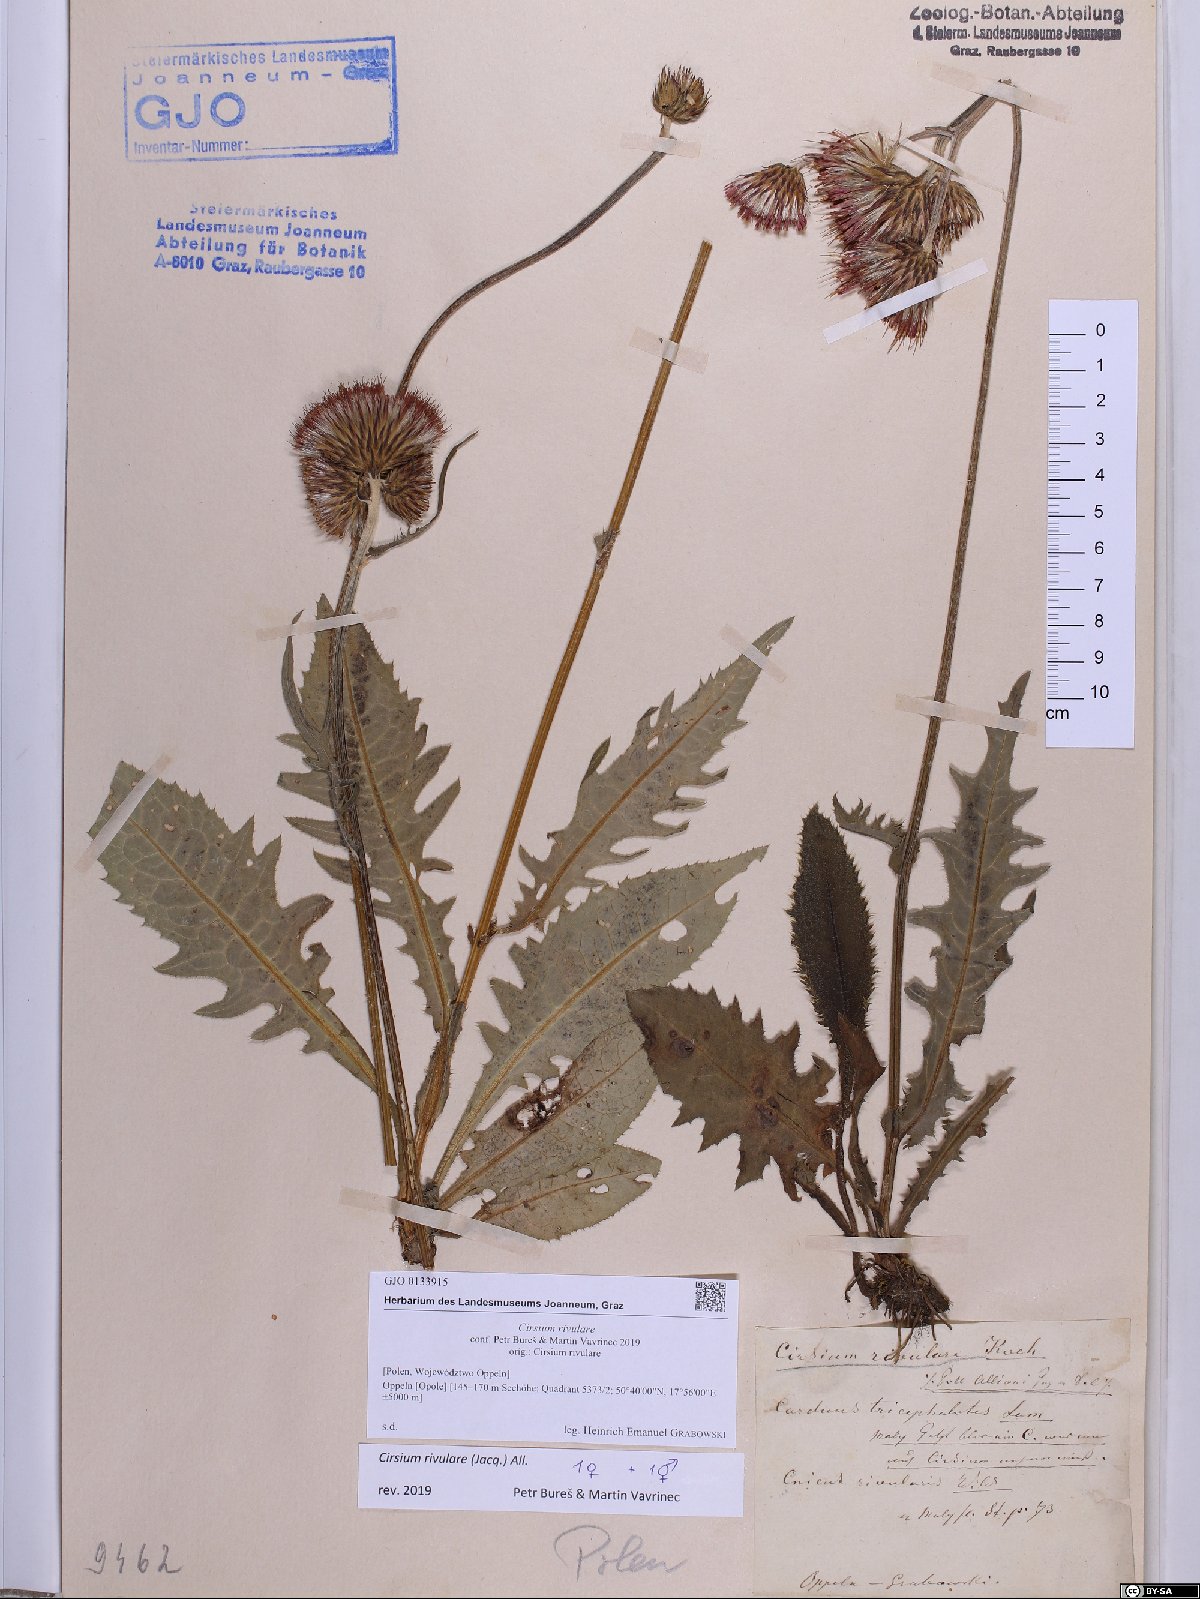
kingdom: Plantae
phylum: Tracheophyta
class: Magnoliopsida
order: Asterales
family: Asteraceae
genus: Cirsium
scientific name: Cirsium rivulare
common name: Brook thistle
